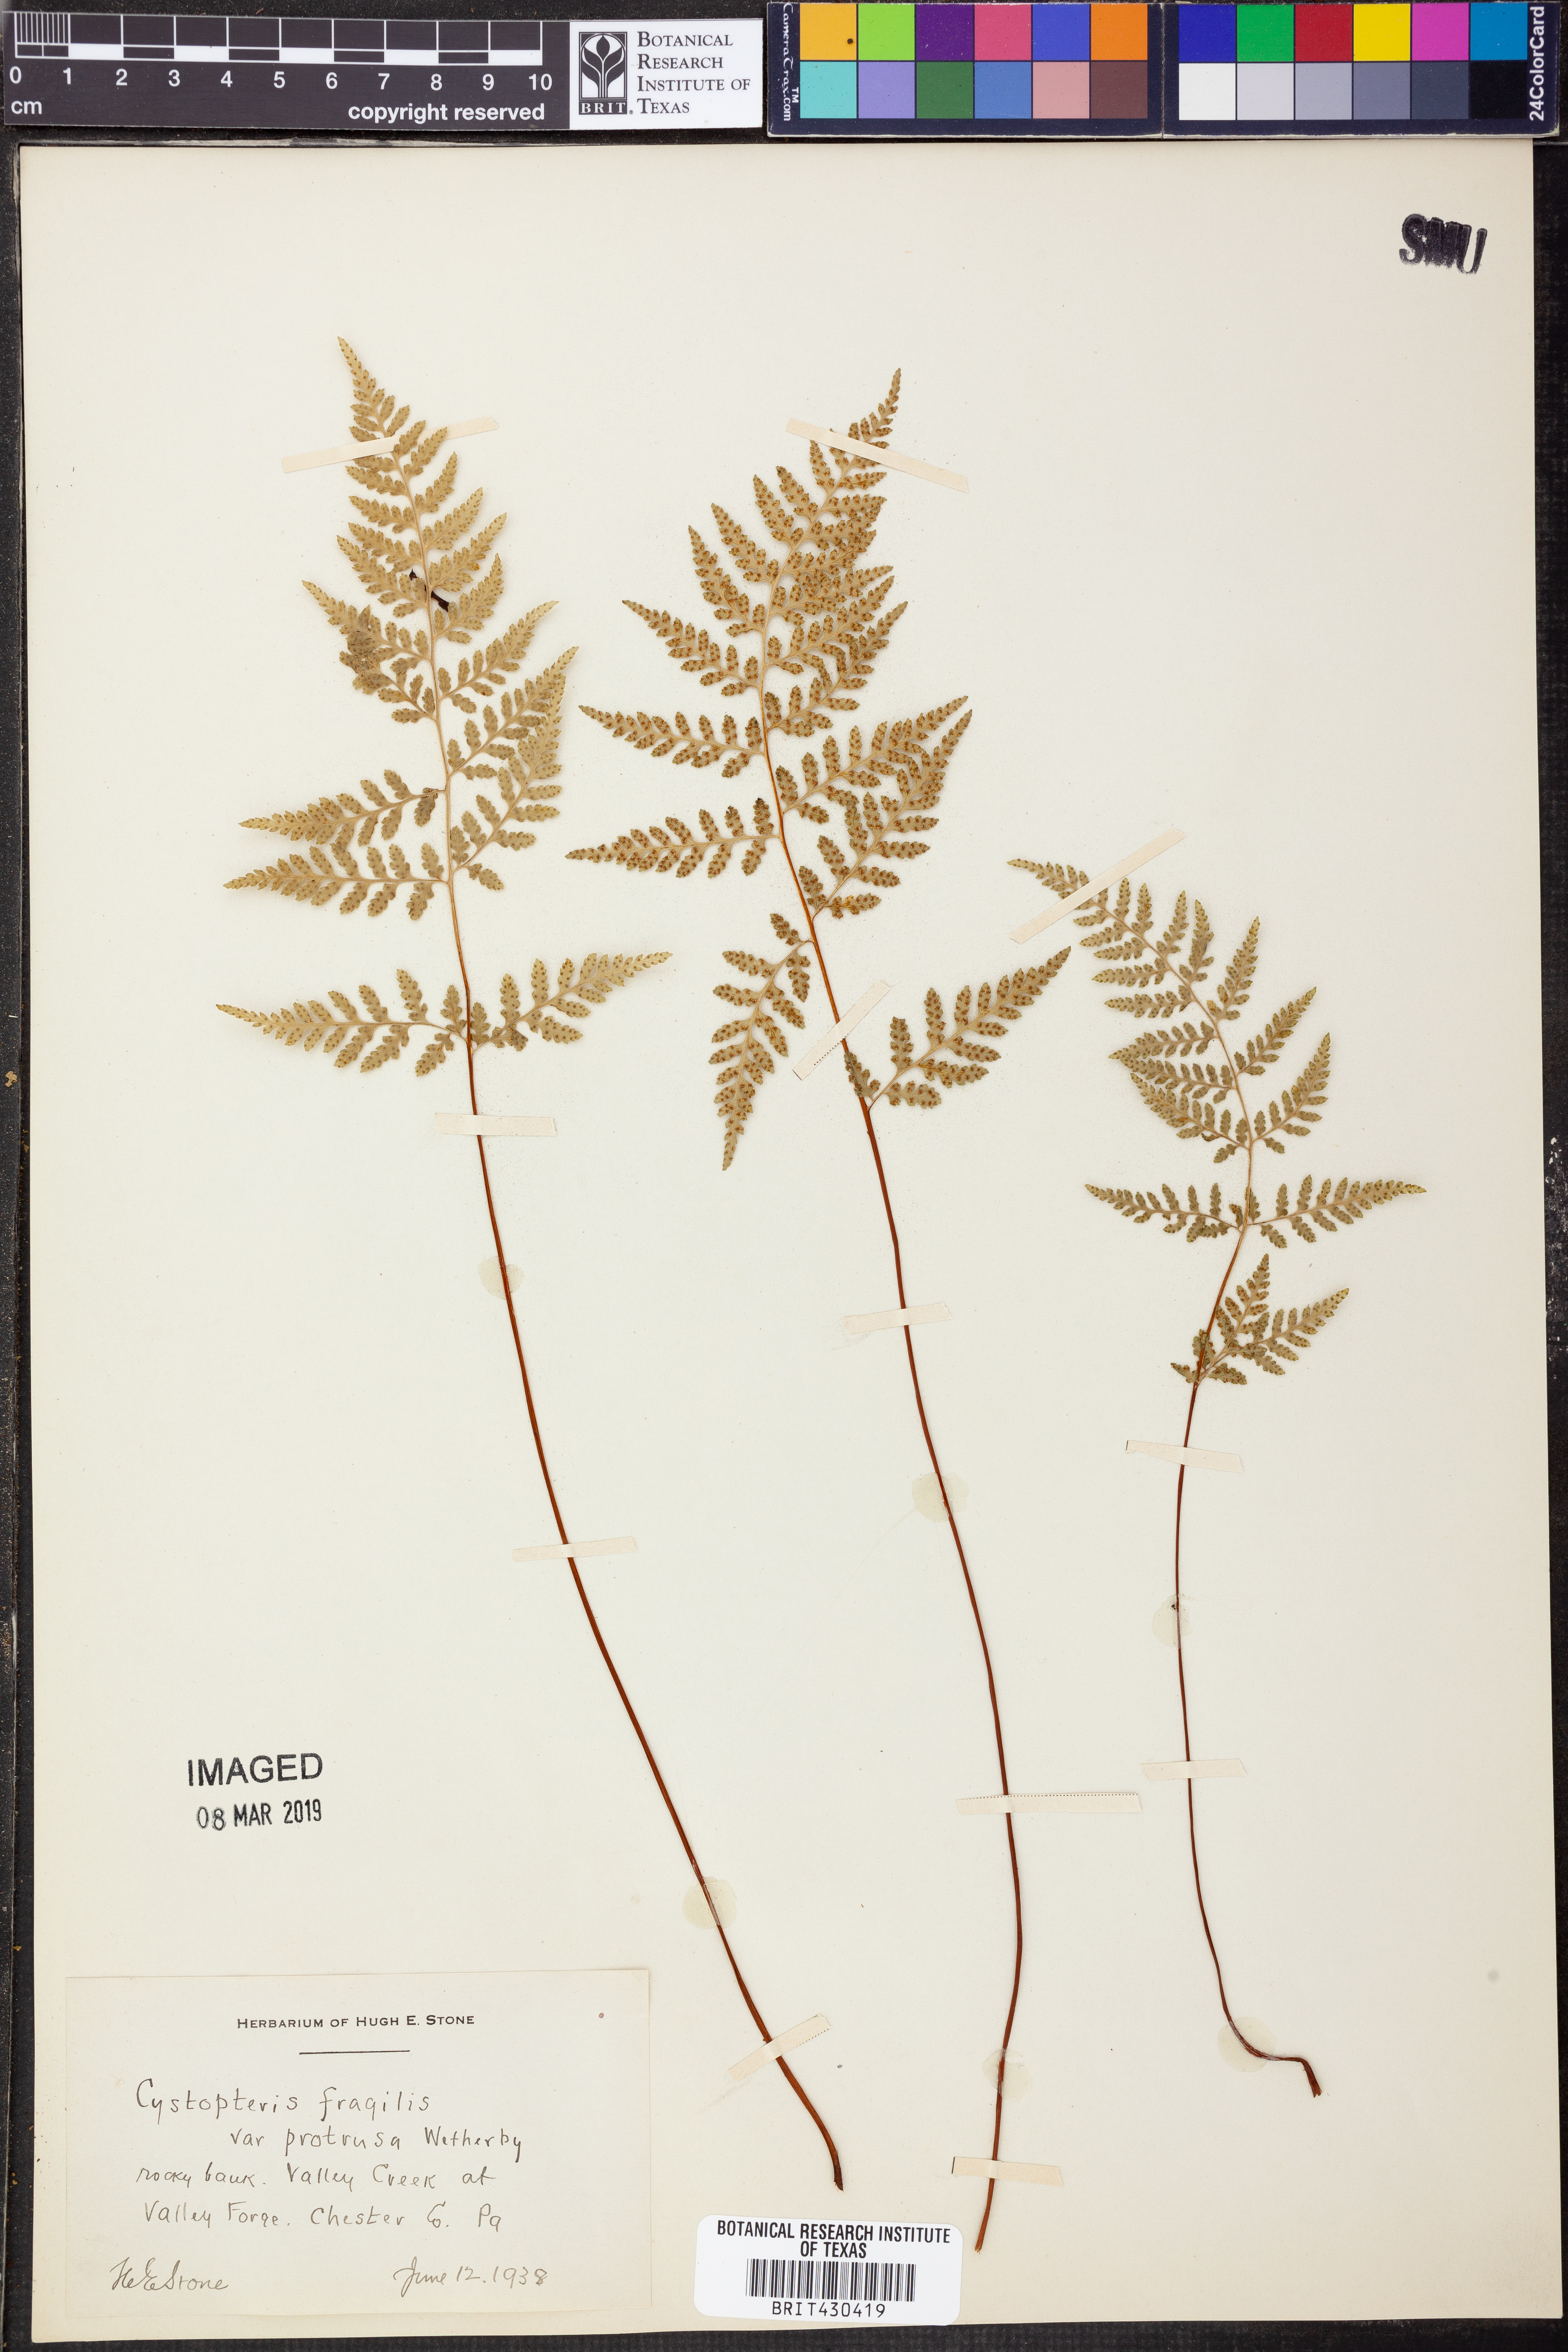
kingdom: Plantae
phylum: Tracheophyta
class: Polypodiopsida
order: Polypodiales
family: Cystopteridaceae
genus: Cystopteris
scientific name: Cystopteris protrusa
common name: Lowland brittle fern
